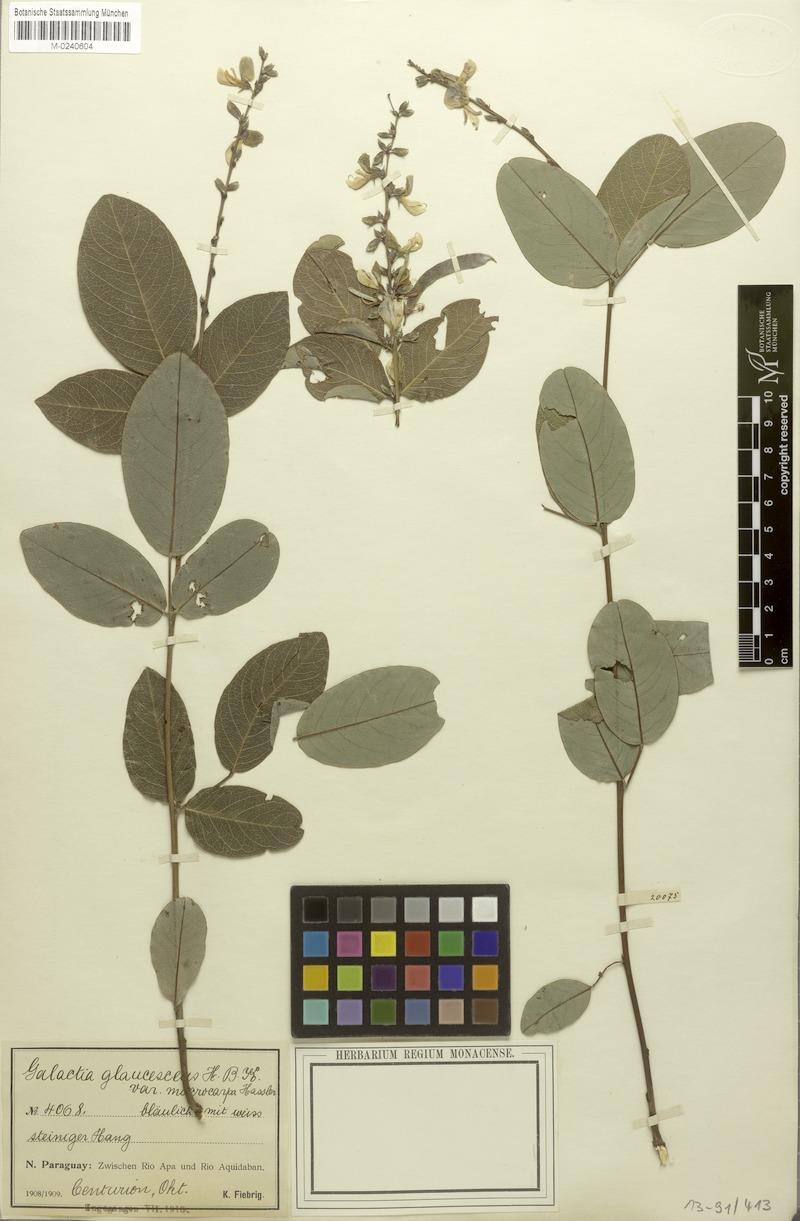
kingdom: Plantae
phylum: Tracheophyta
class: Magnoliopsida
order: Fabales
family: Fabaceae
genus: Galactia
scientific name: Galactia glaucescens
